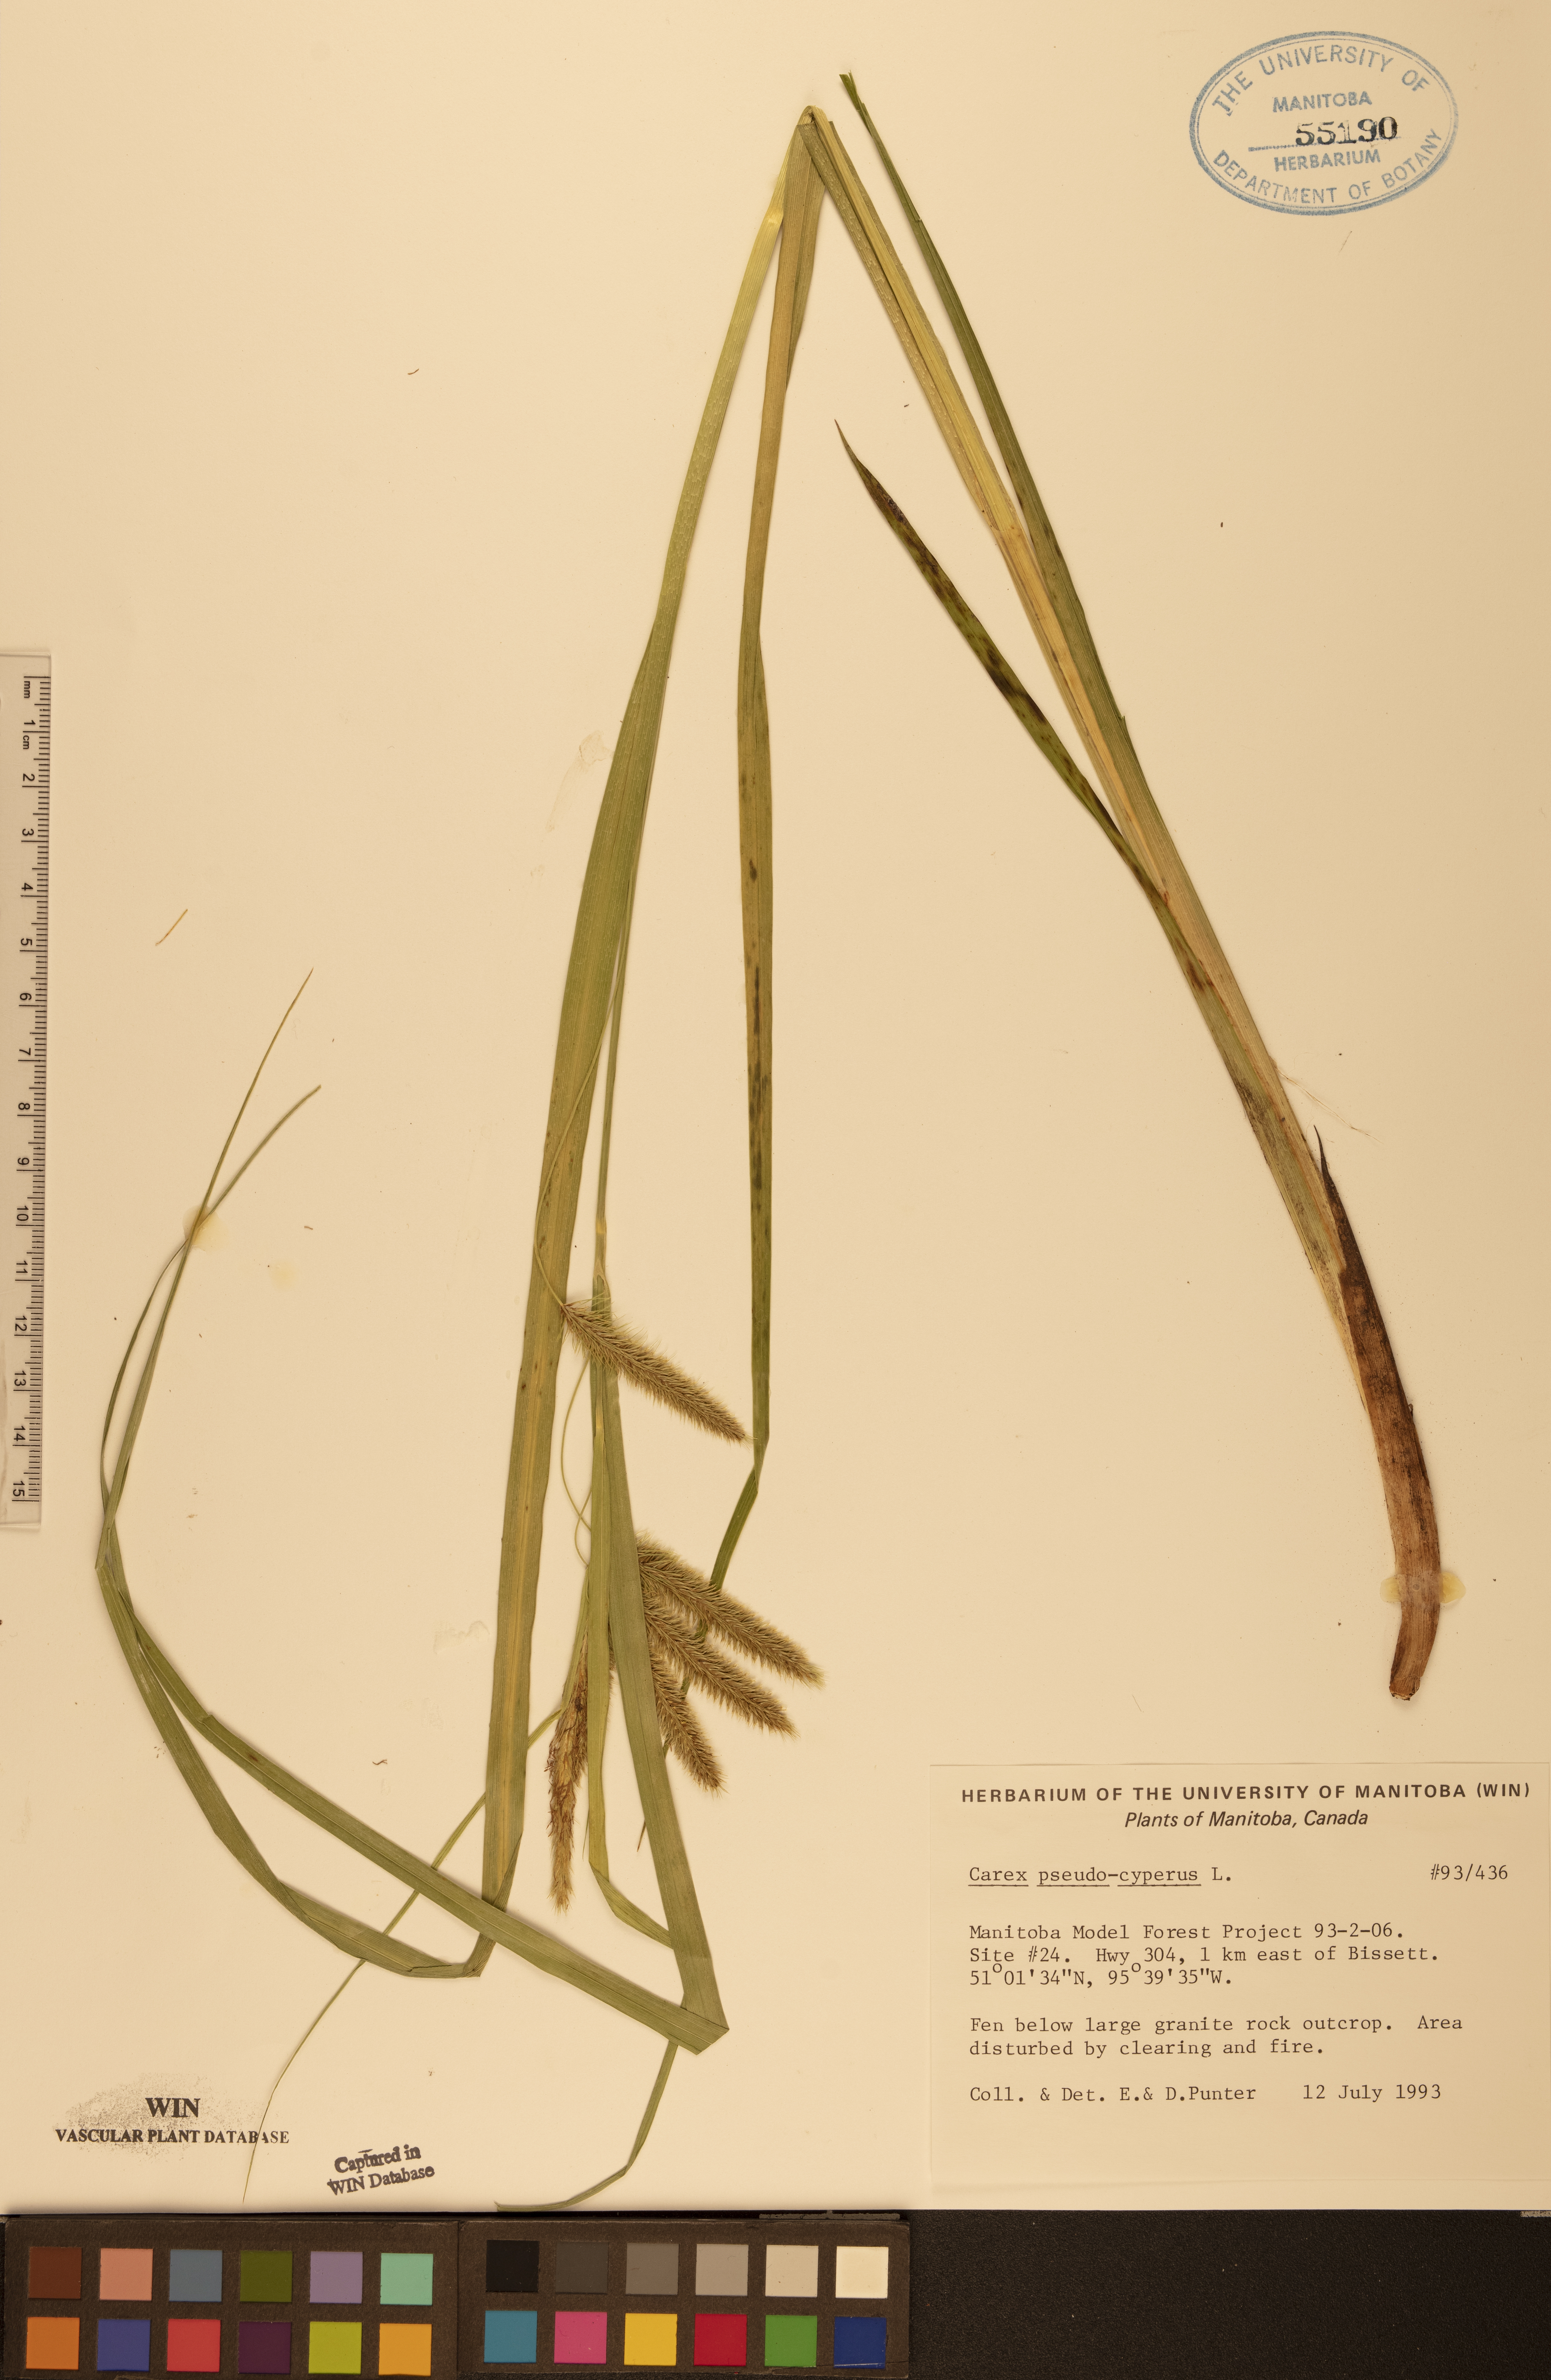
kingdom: Plantae
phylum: Tracheophyta
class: Liliopsida
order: Poales
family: Cyperaceae
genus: Carex
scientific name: Carex pseudocyperus
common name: Cyperus sedge
